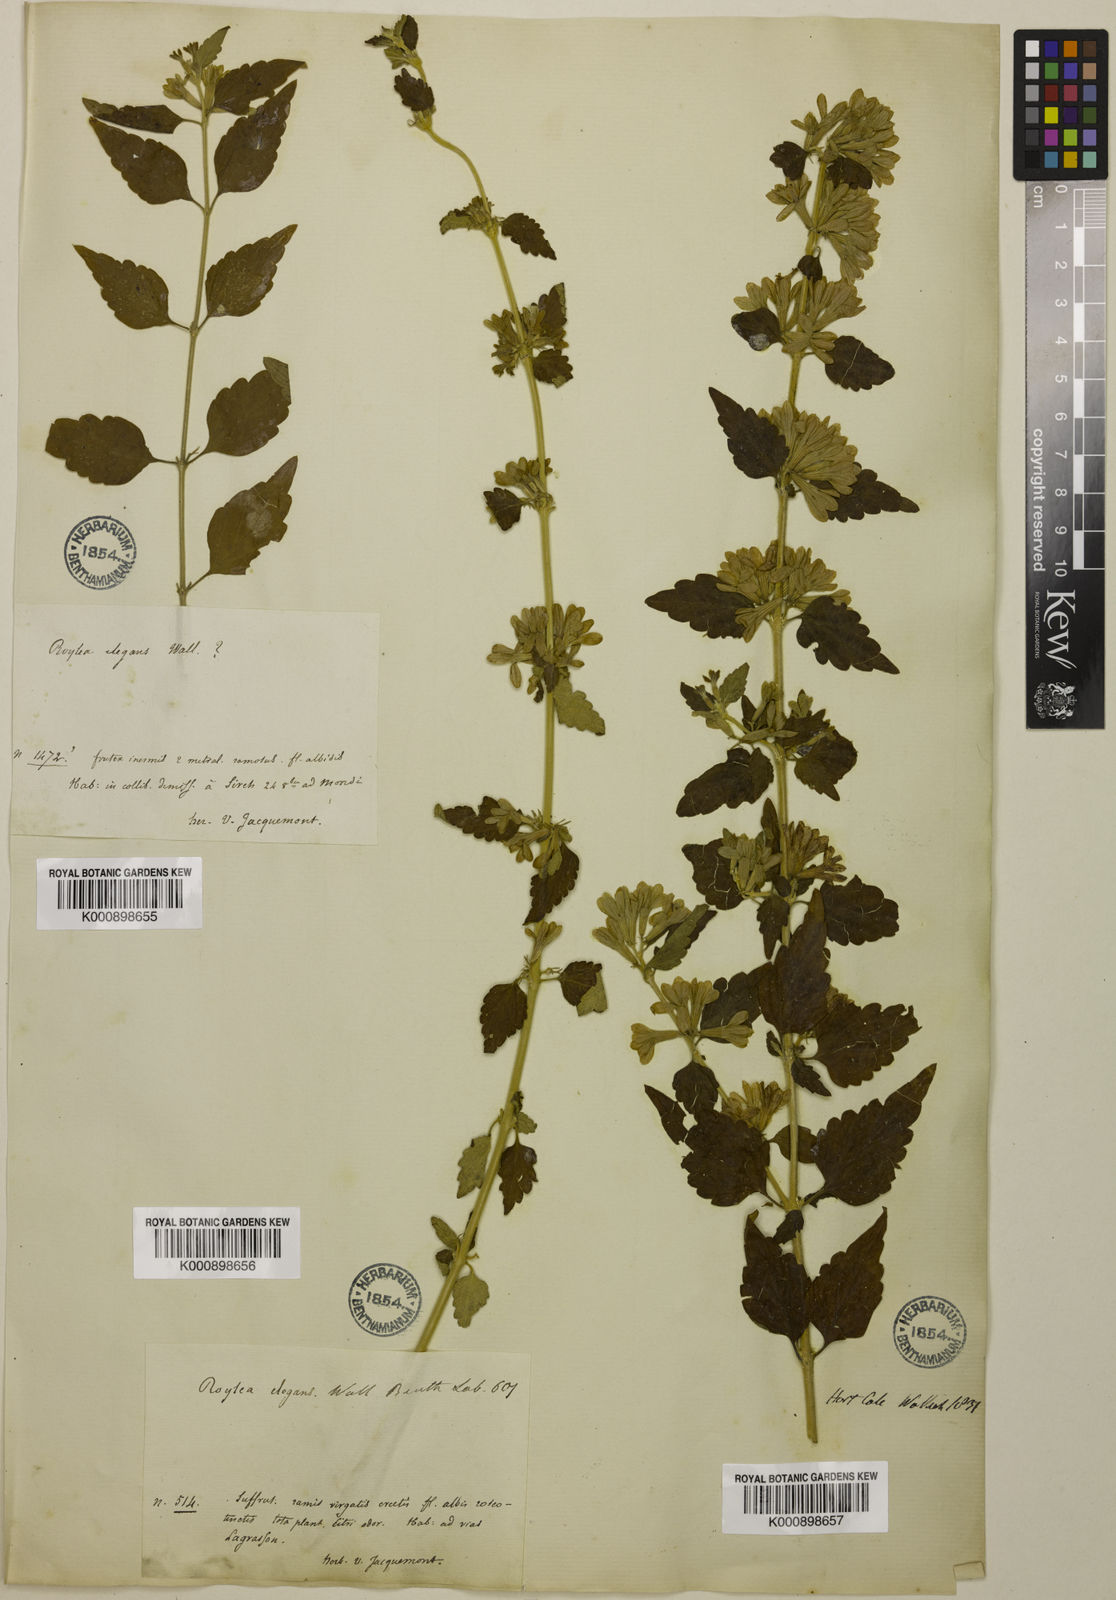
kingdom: Plantae
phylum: Tracheophyta
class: Magnoliopsida
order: Lamiales
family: Lamiaceae
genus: Roylea
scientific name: Roylea
